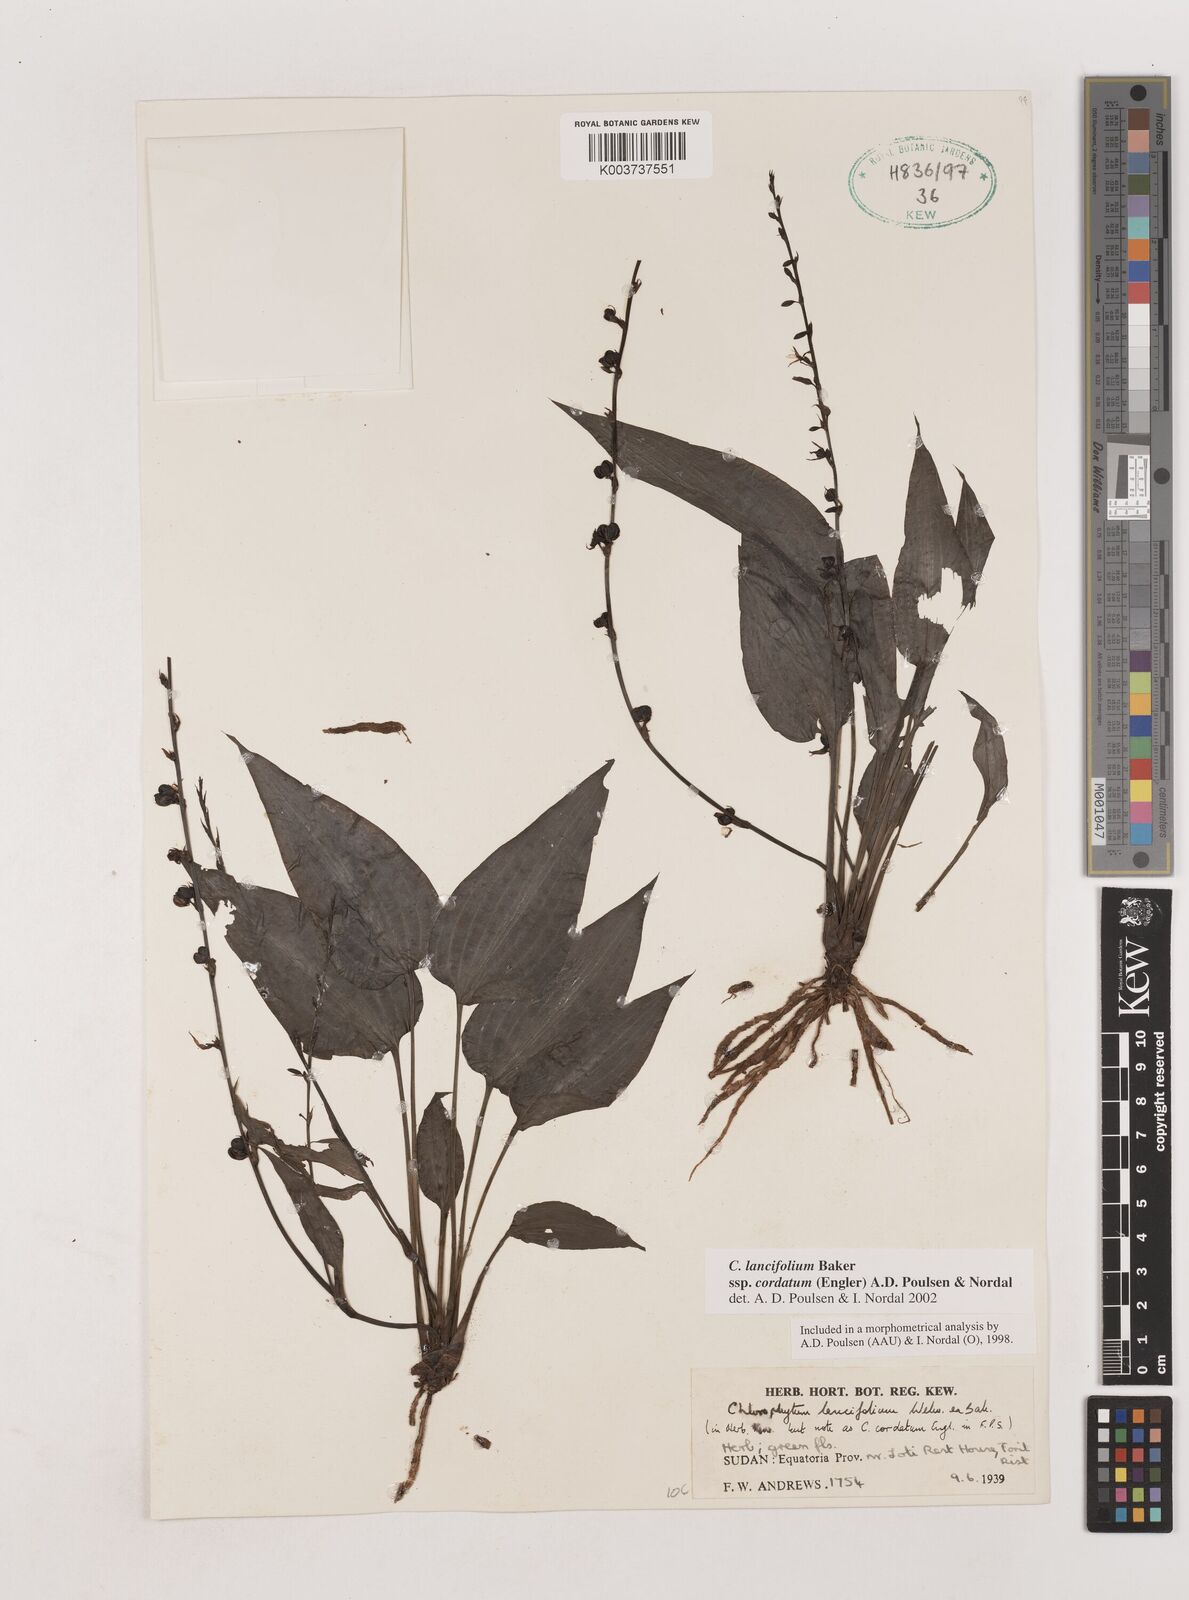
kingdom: Plantae
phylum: Tracheophyta
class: Liliopsida
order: Asparagales
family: Asparagaceae
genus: Chlorophytum
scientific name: Chlorophytum lancifolium
